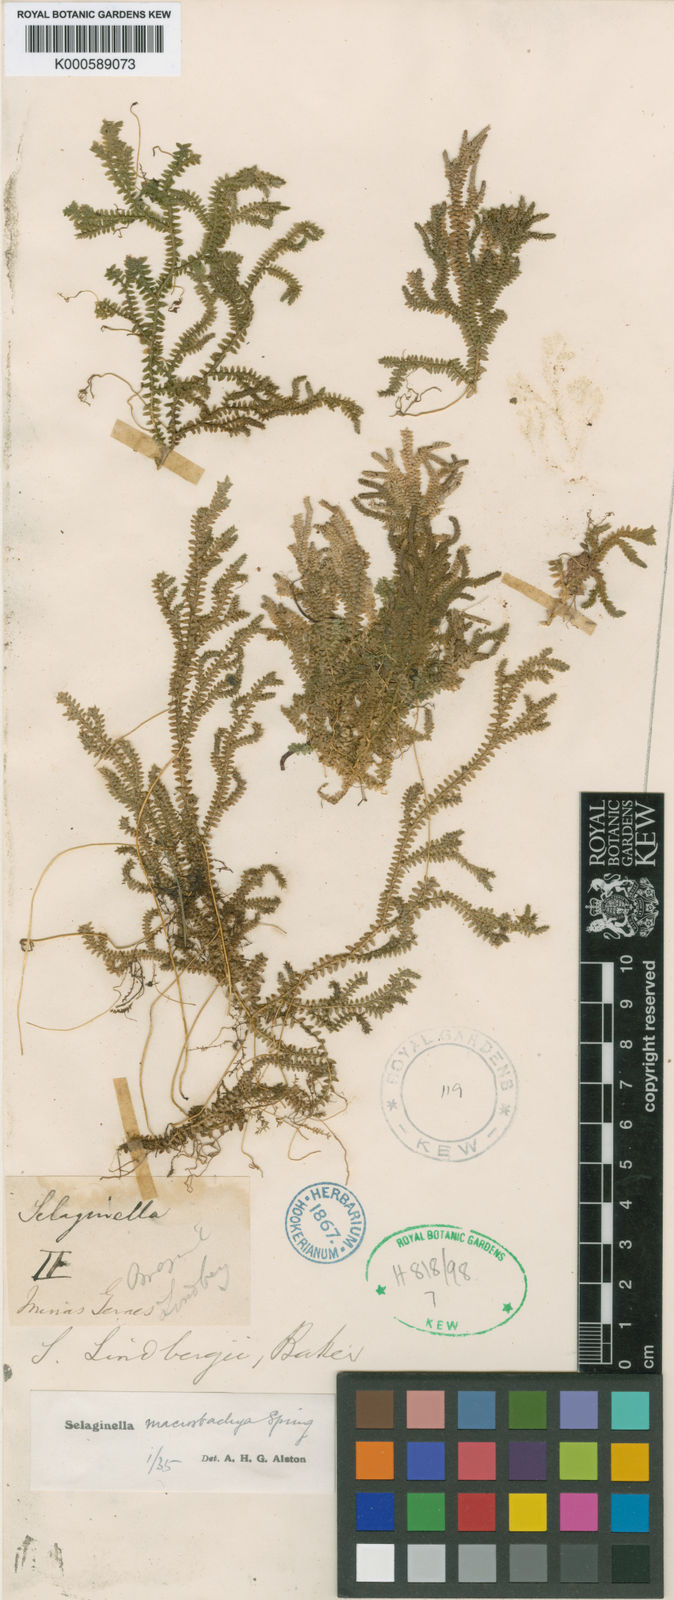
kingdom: Plantae
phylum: Tracheophyta
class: Lycopodiopsida
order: Selaginellales
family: Selaginellaceae
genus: Selaginella
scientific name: Selaginella macrostachya
